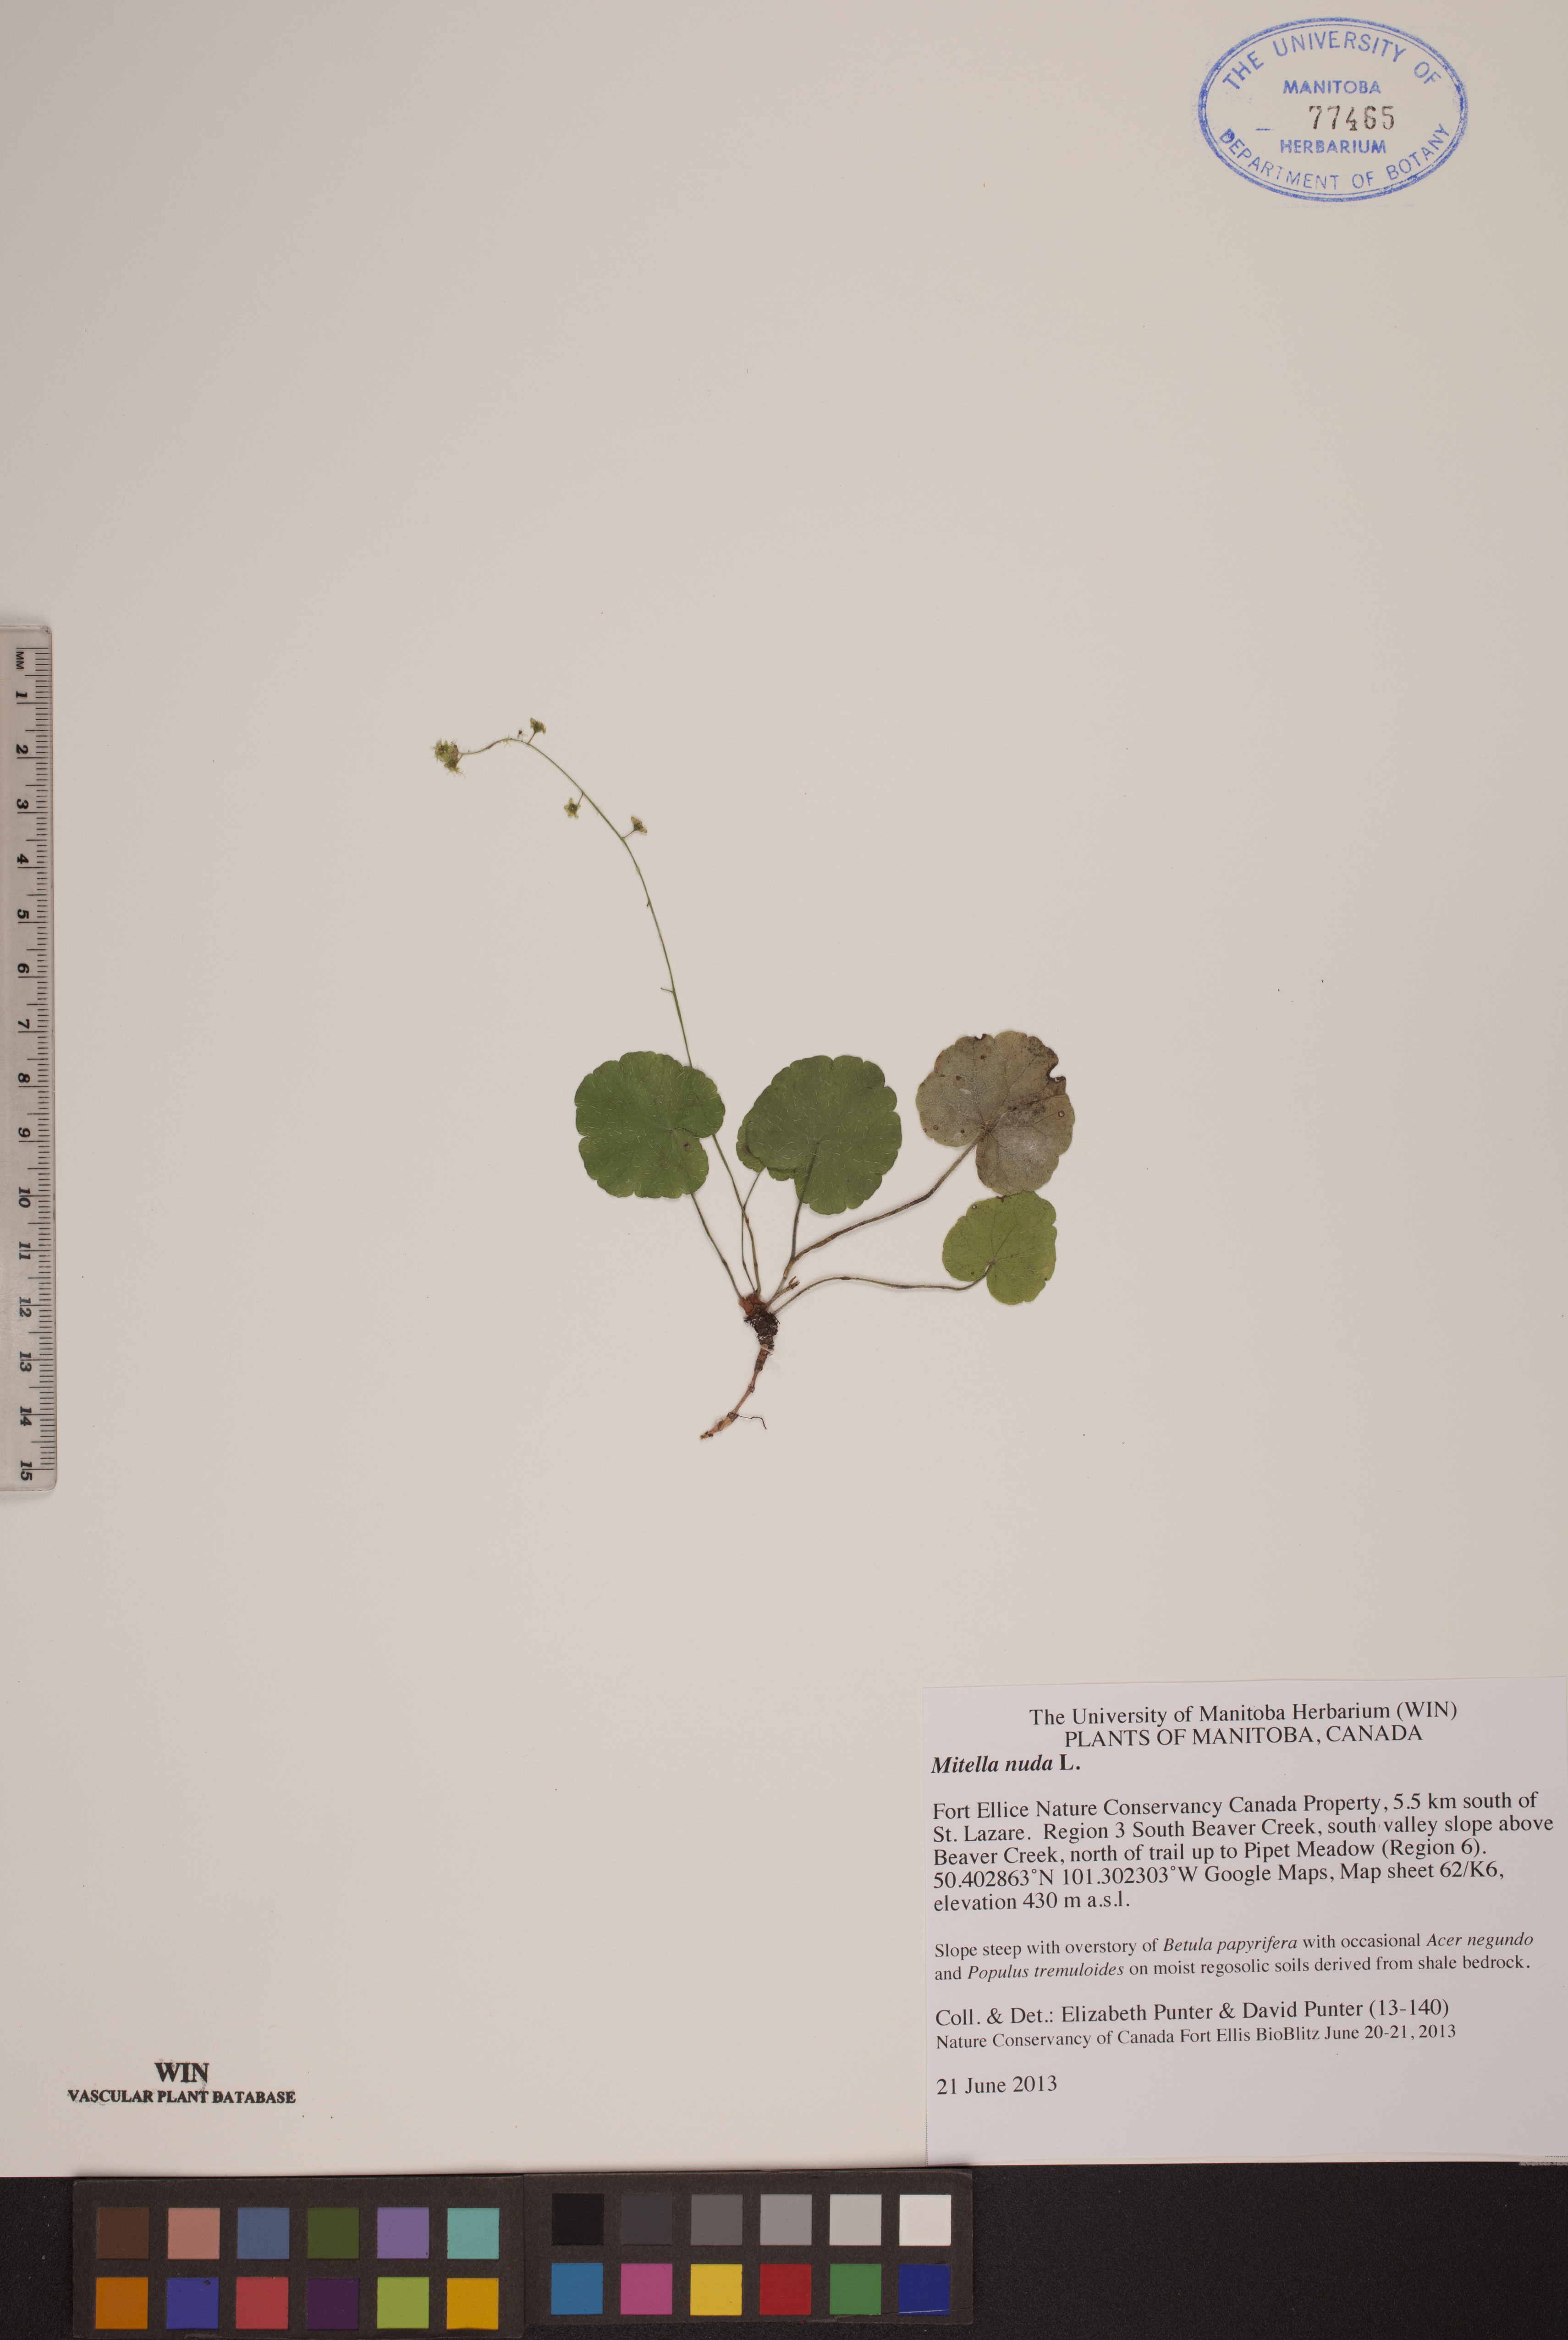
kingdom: Plantae
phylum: Tracheophyta
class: Magnoliopsida
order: Saxifragales
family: Saxifragaceae
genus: Mitella
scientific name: Mitella nuda
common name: Bare-stemmed bishop's-cap
